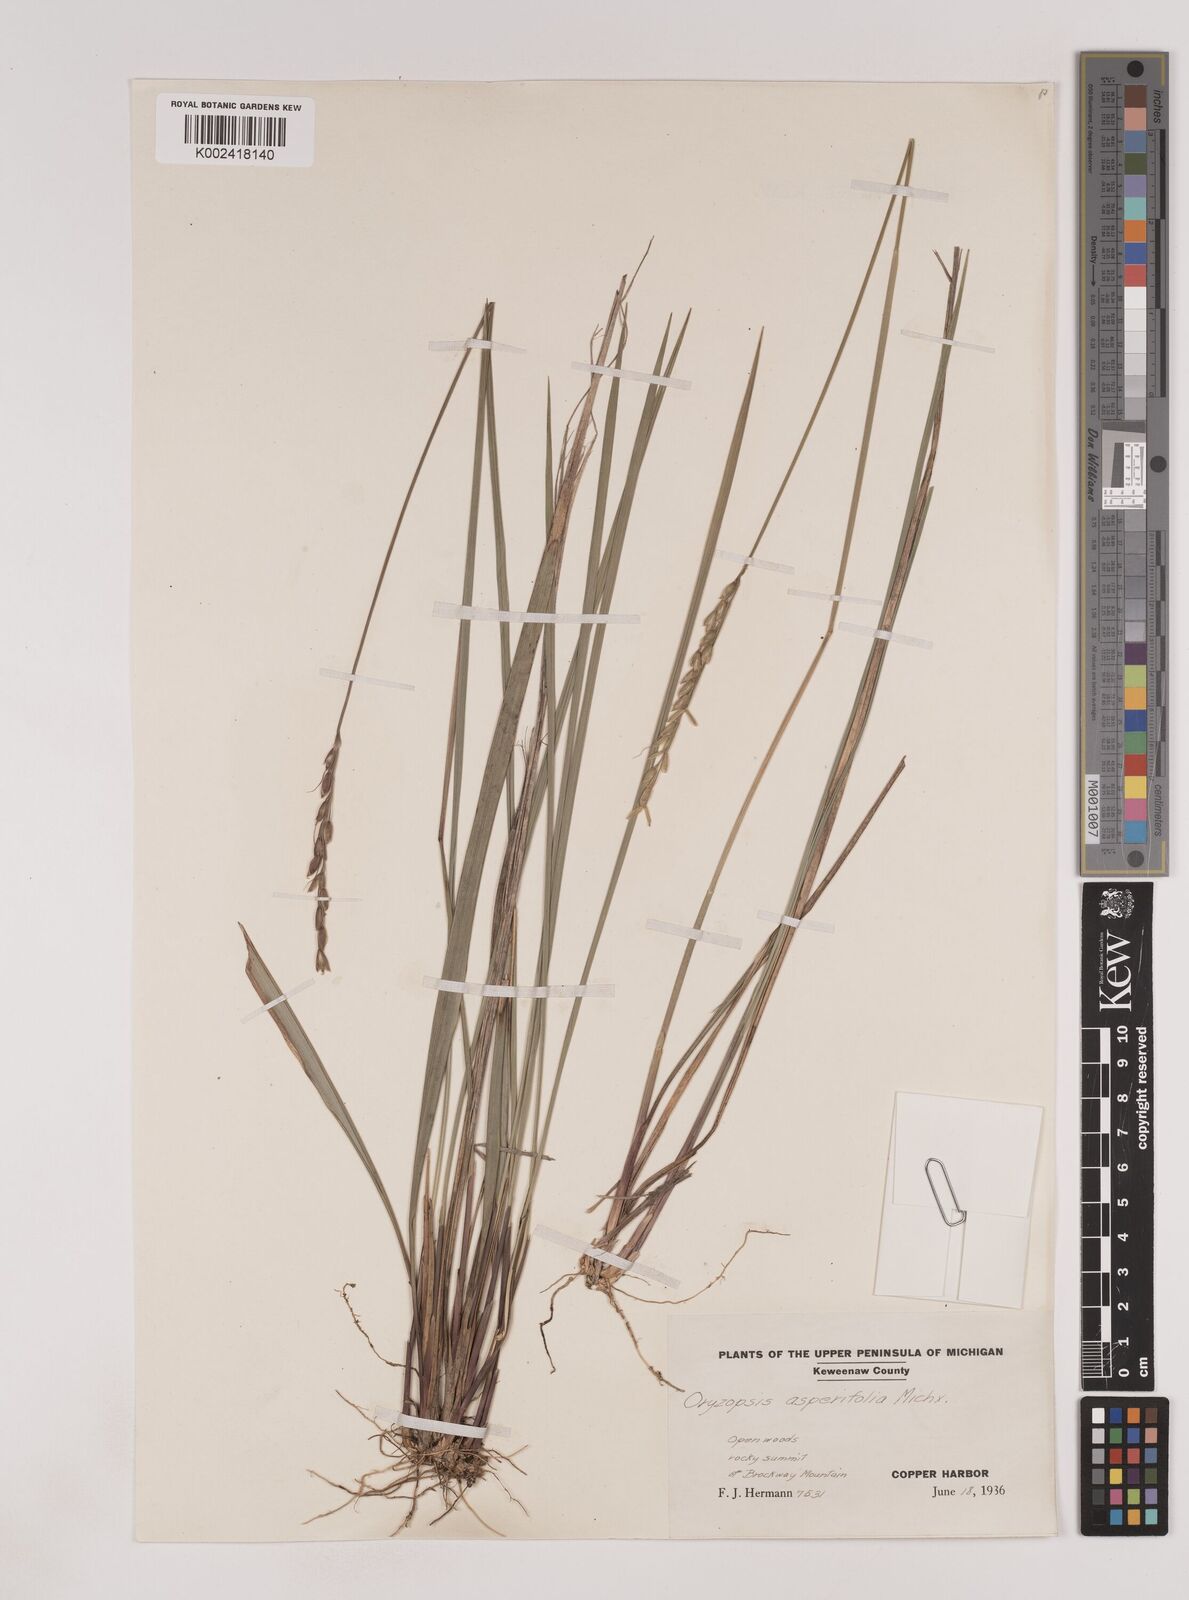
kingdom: Plantae
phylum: Tracheophyta
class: Liliopsida
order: Poales
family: Poaceae
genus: Oryzopsis
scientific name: Oryzopsis asperifolia
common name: Rough-leaved mountain rice
